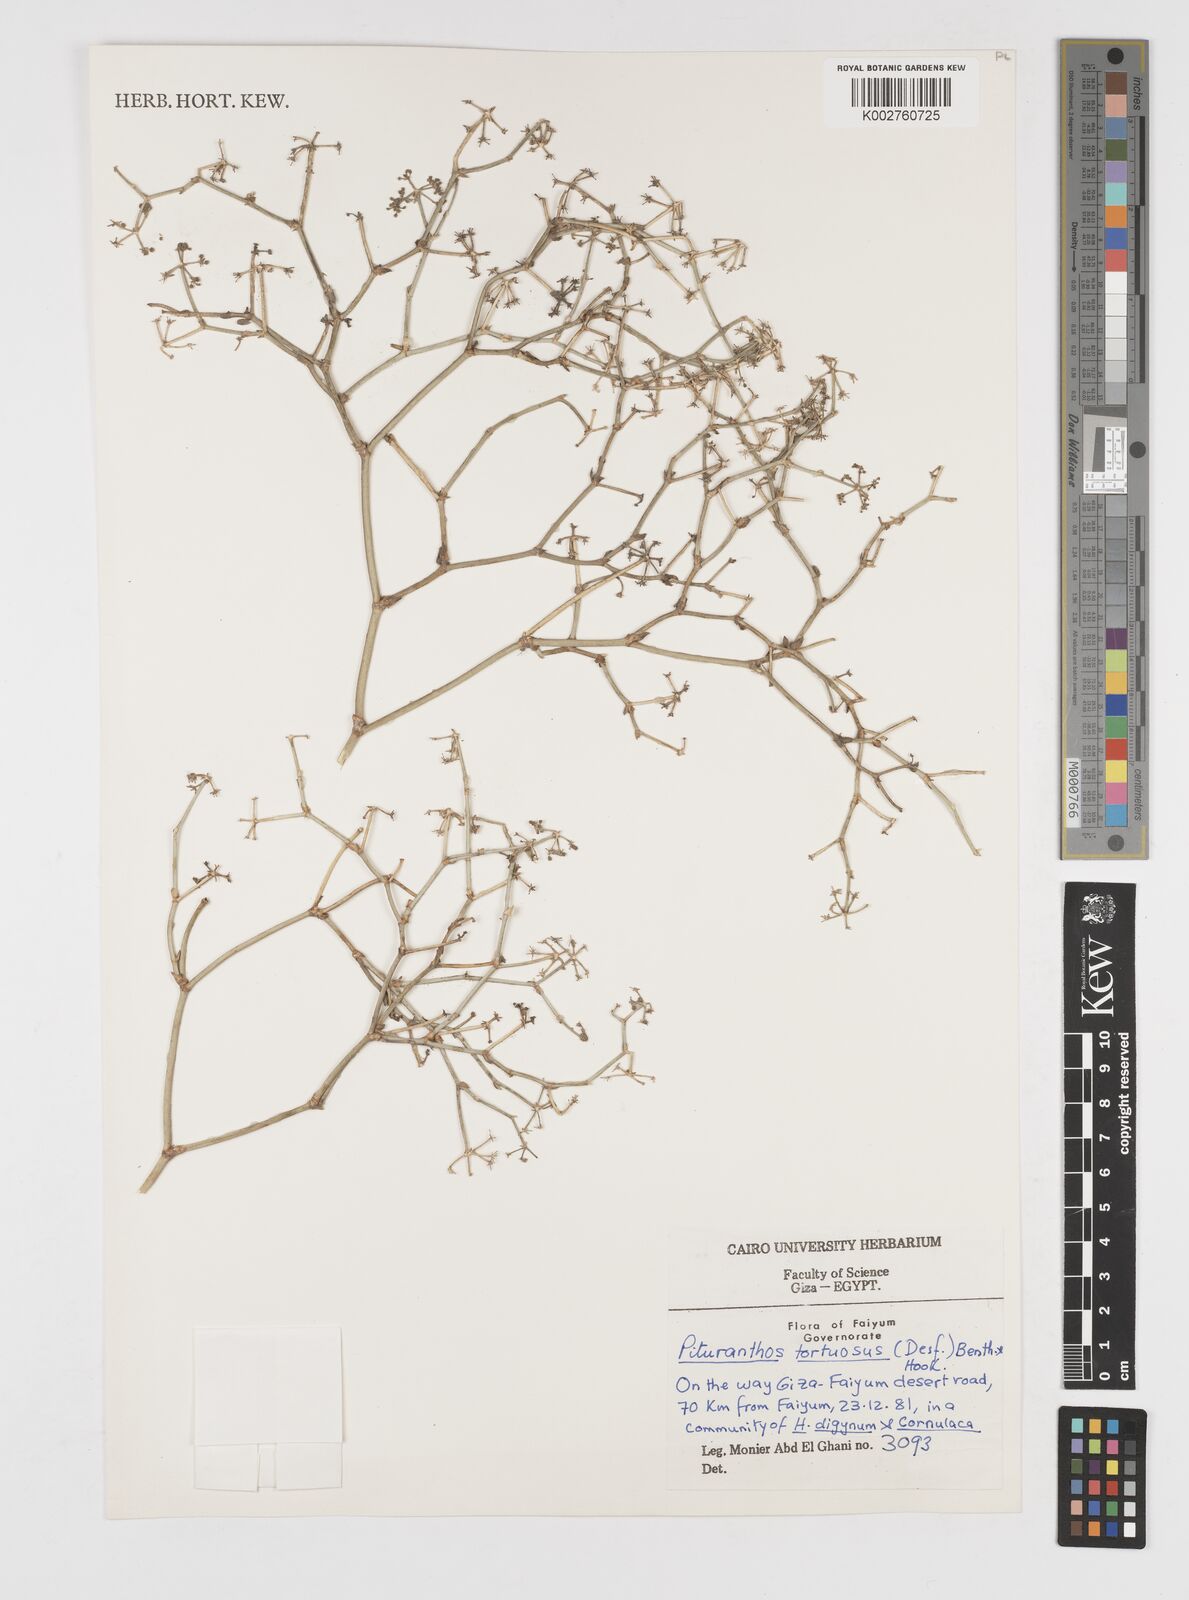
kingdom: Plantae
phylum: Tracheophyta
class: Magnoliopsida
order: Apiales
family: Apiaceae
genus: Deverra
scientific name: Deverra tortuosa
